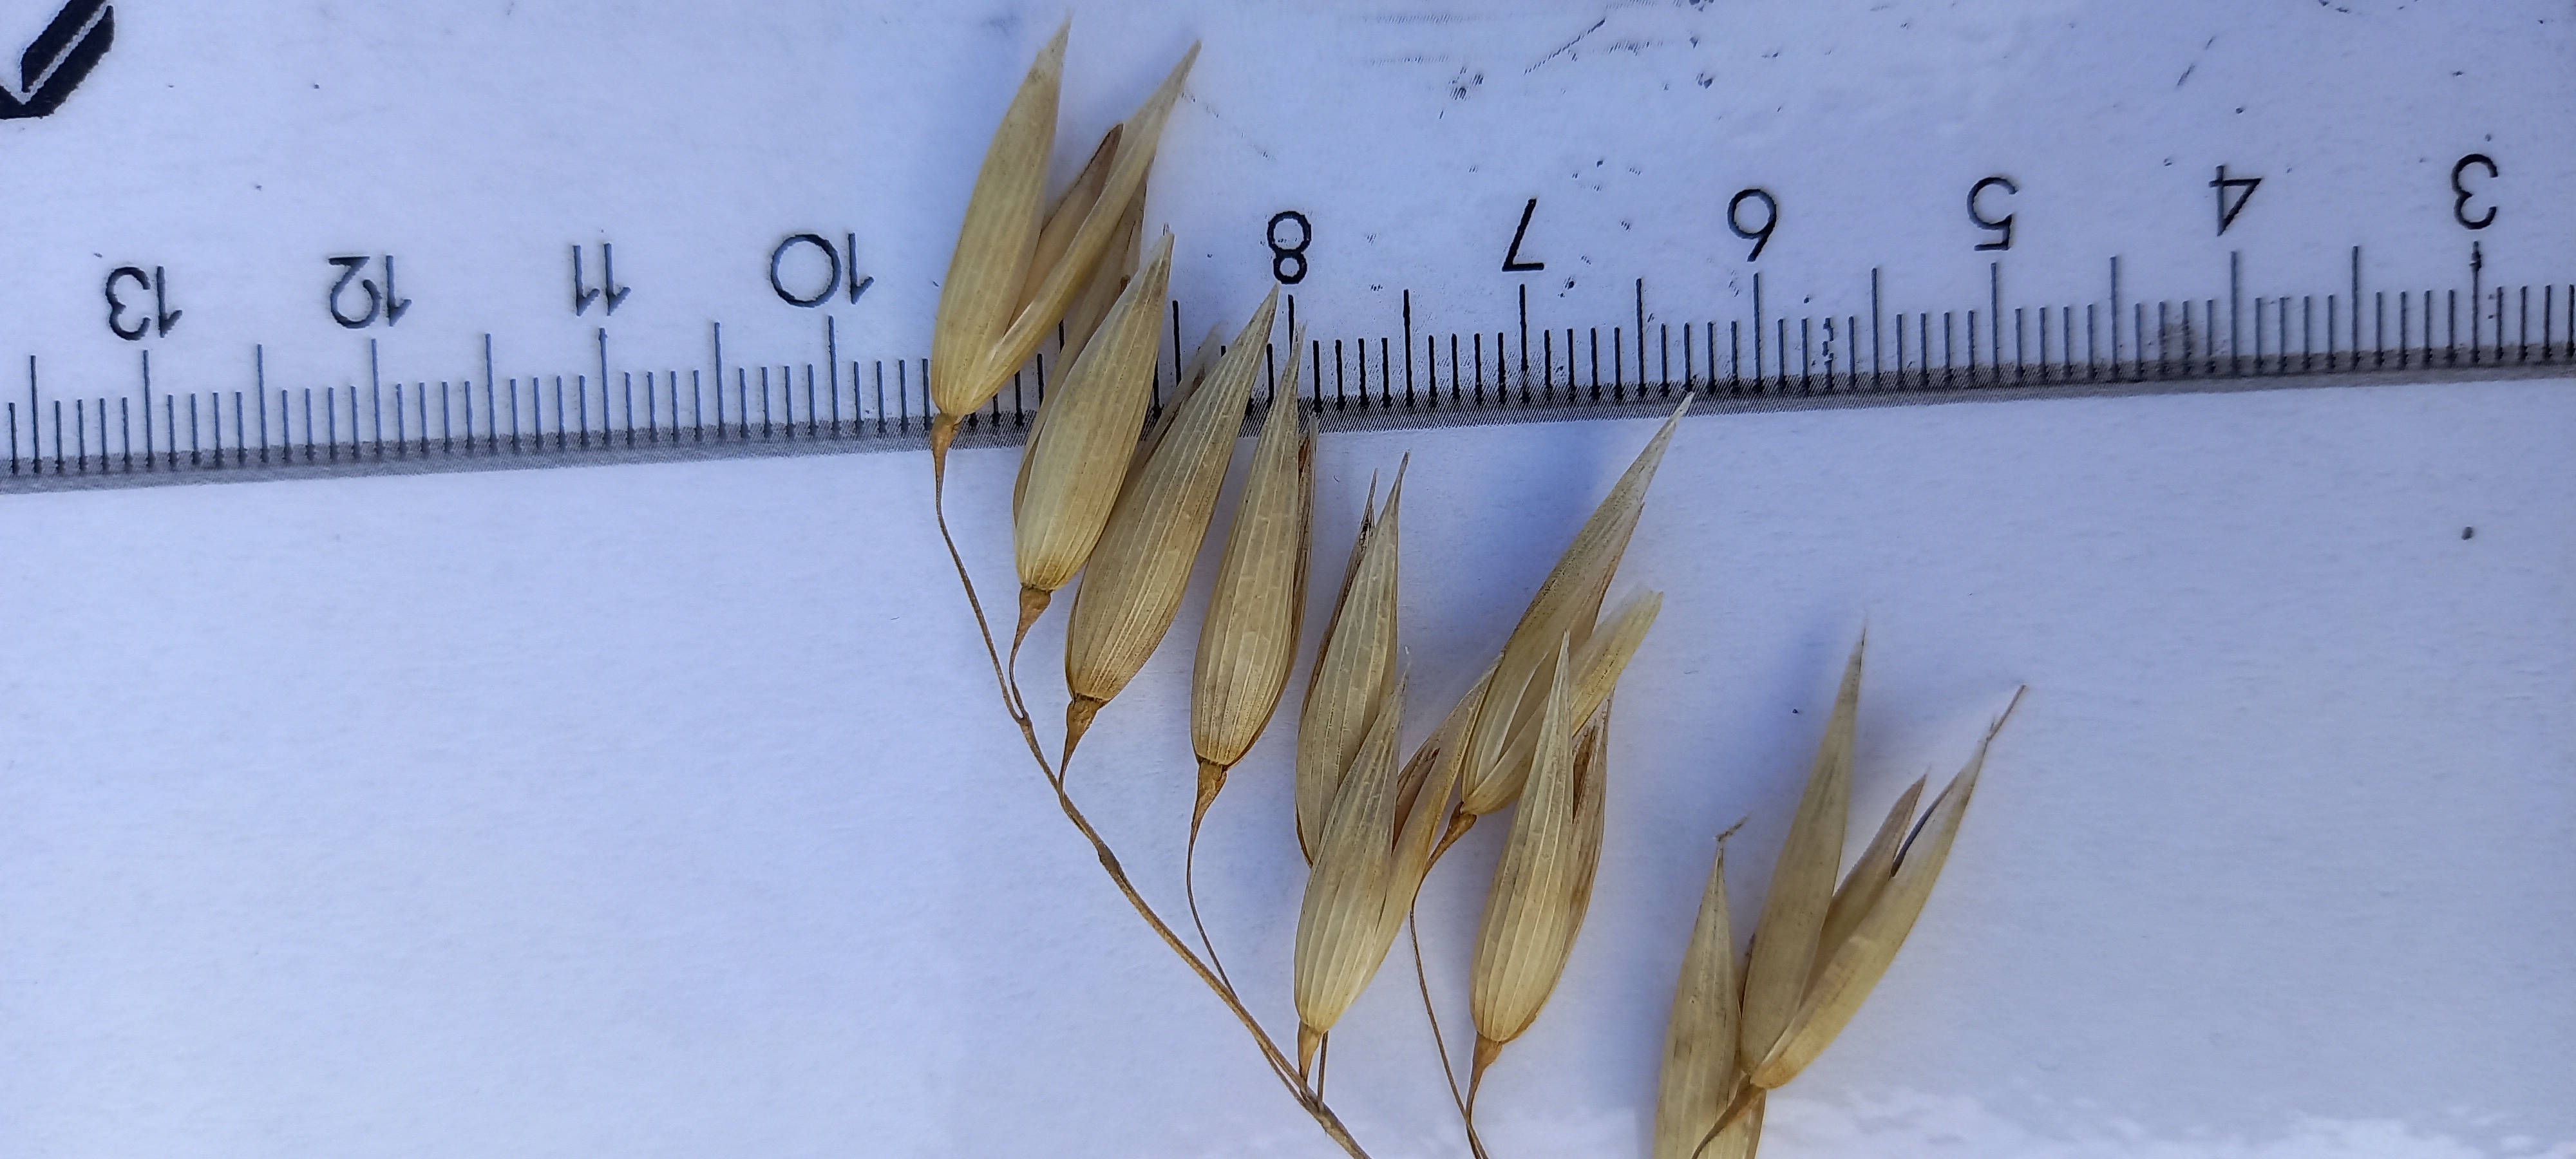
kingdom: Plantae
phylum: Tracheophyta
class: Liliopsida
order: Poales
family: Poaceae
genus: Avena
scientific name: Avena sativa
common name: Oat
